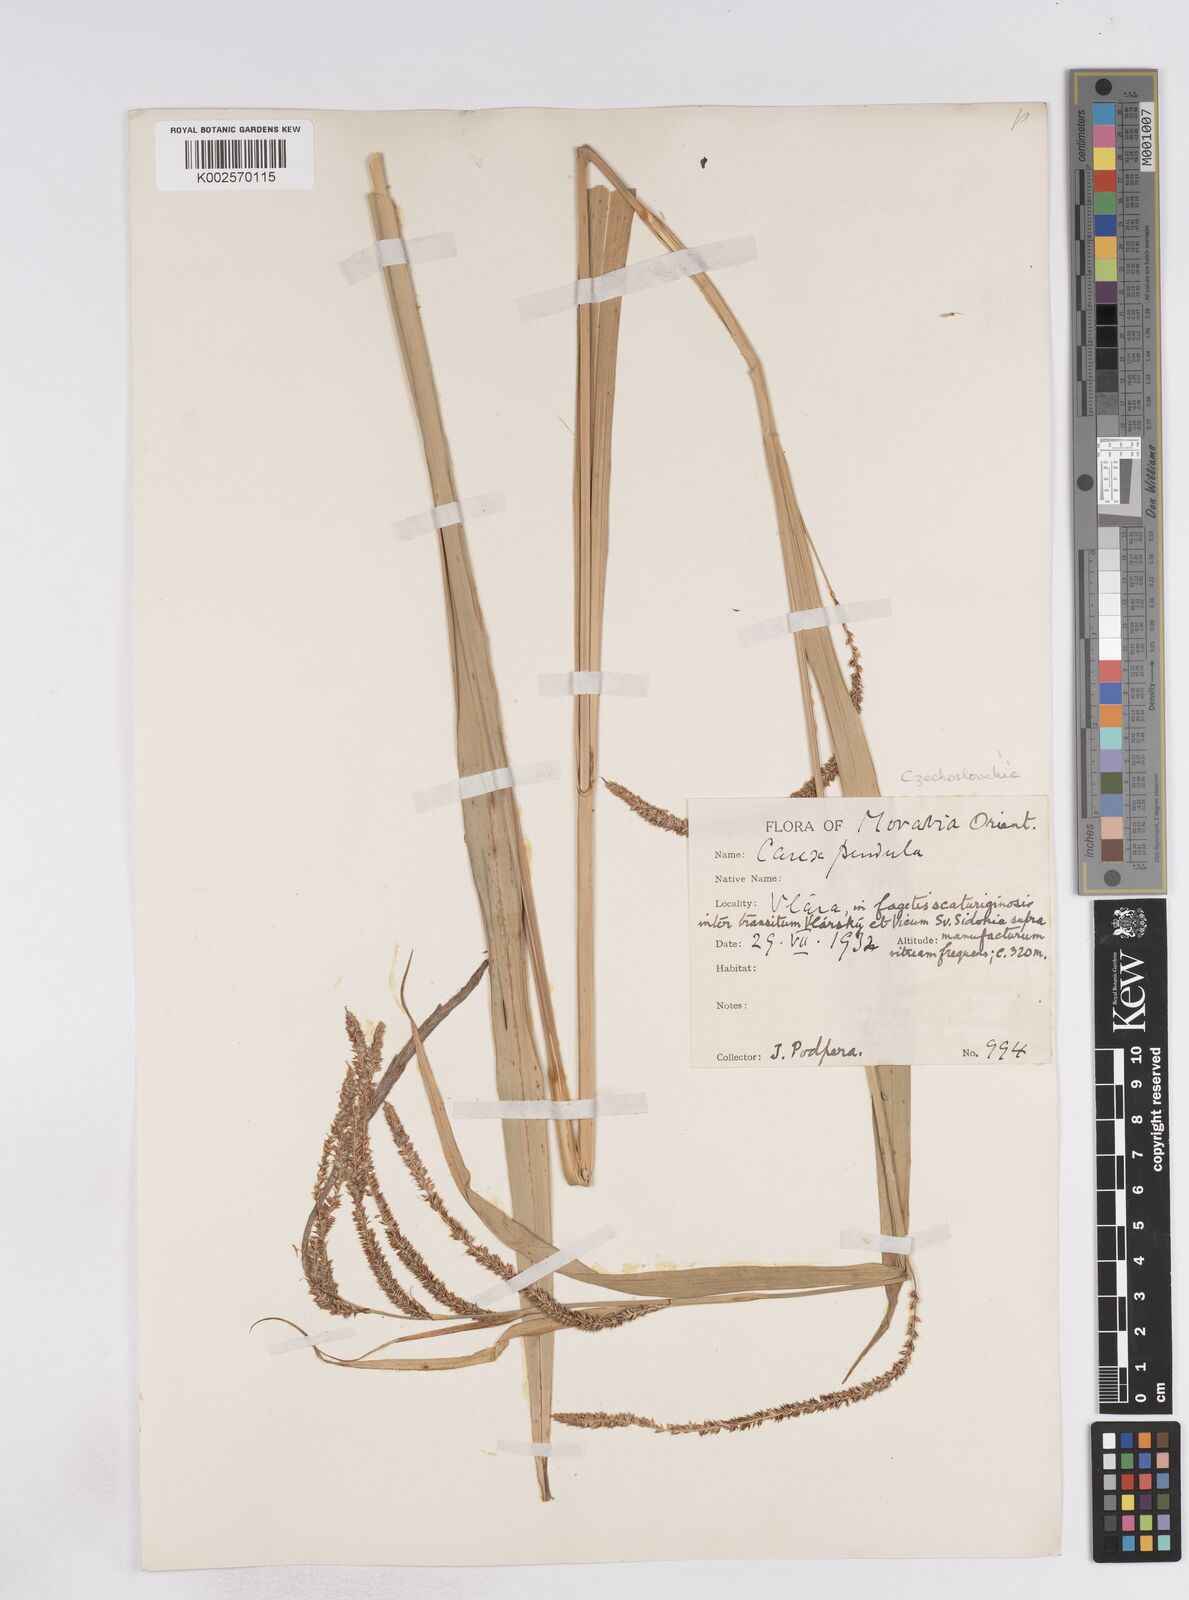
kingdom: Plantae
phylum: Tracheophyta
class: Liliopsida
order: Poales
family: Cyperaceae
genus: Carex
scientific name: Carex pendula
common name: Pendulous sedge
